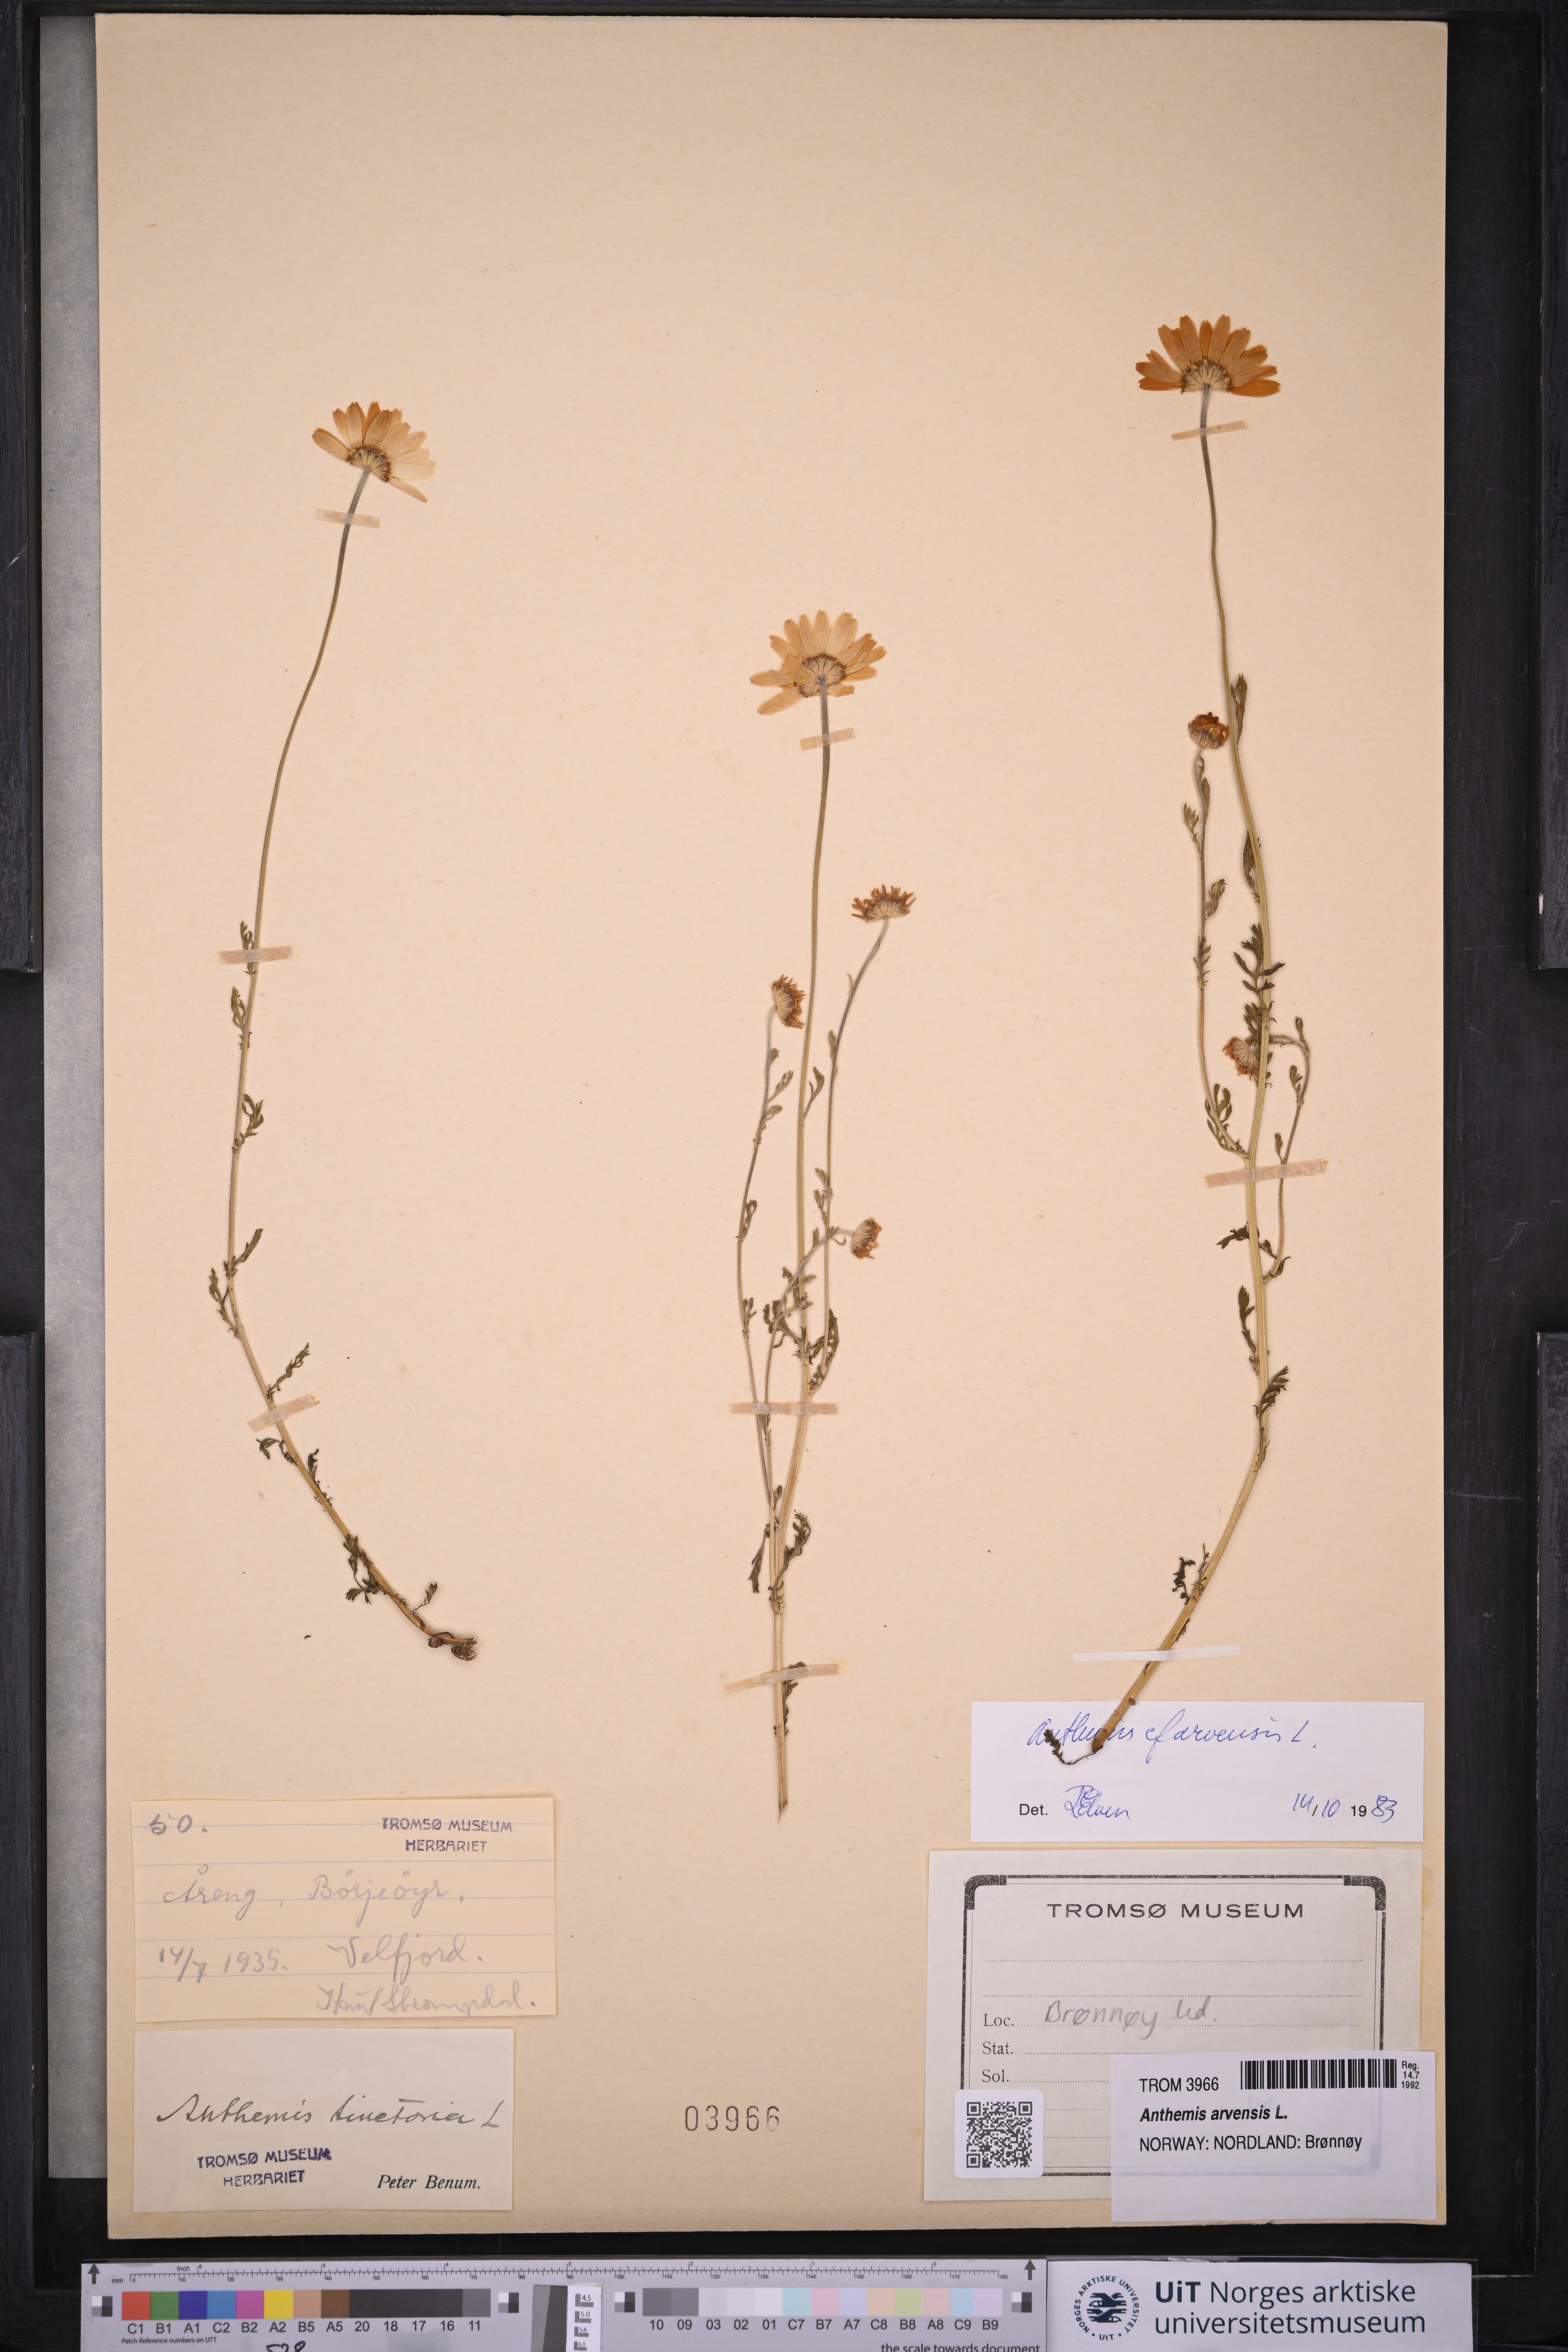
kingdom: Plantae
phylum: Tracheophyta
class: Magnoliopsida
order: Asterales
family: Asteraceae
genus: Anthemis
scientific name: Anthemis arvensis
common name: Corn chamomile
